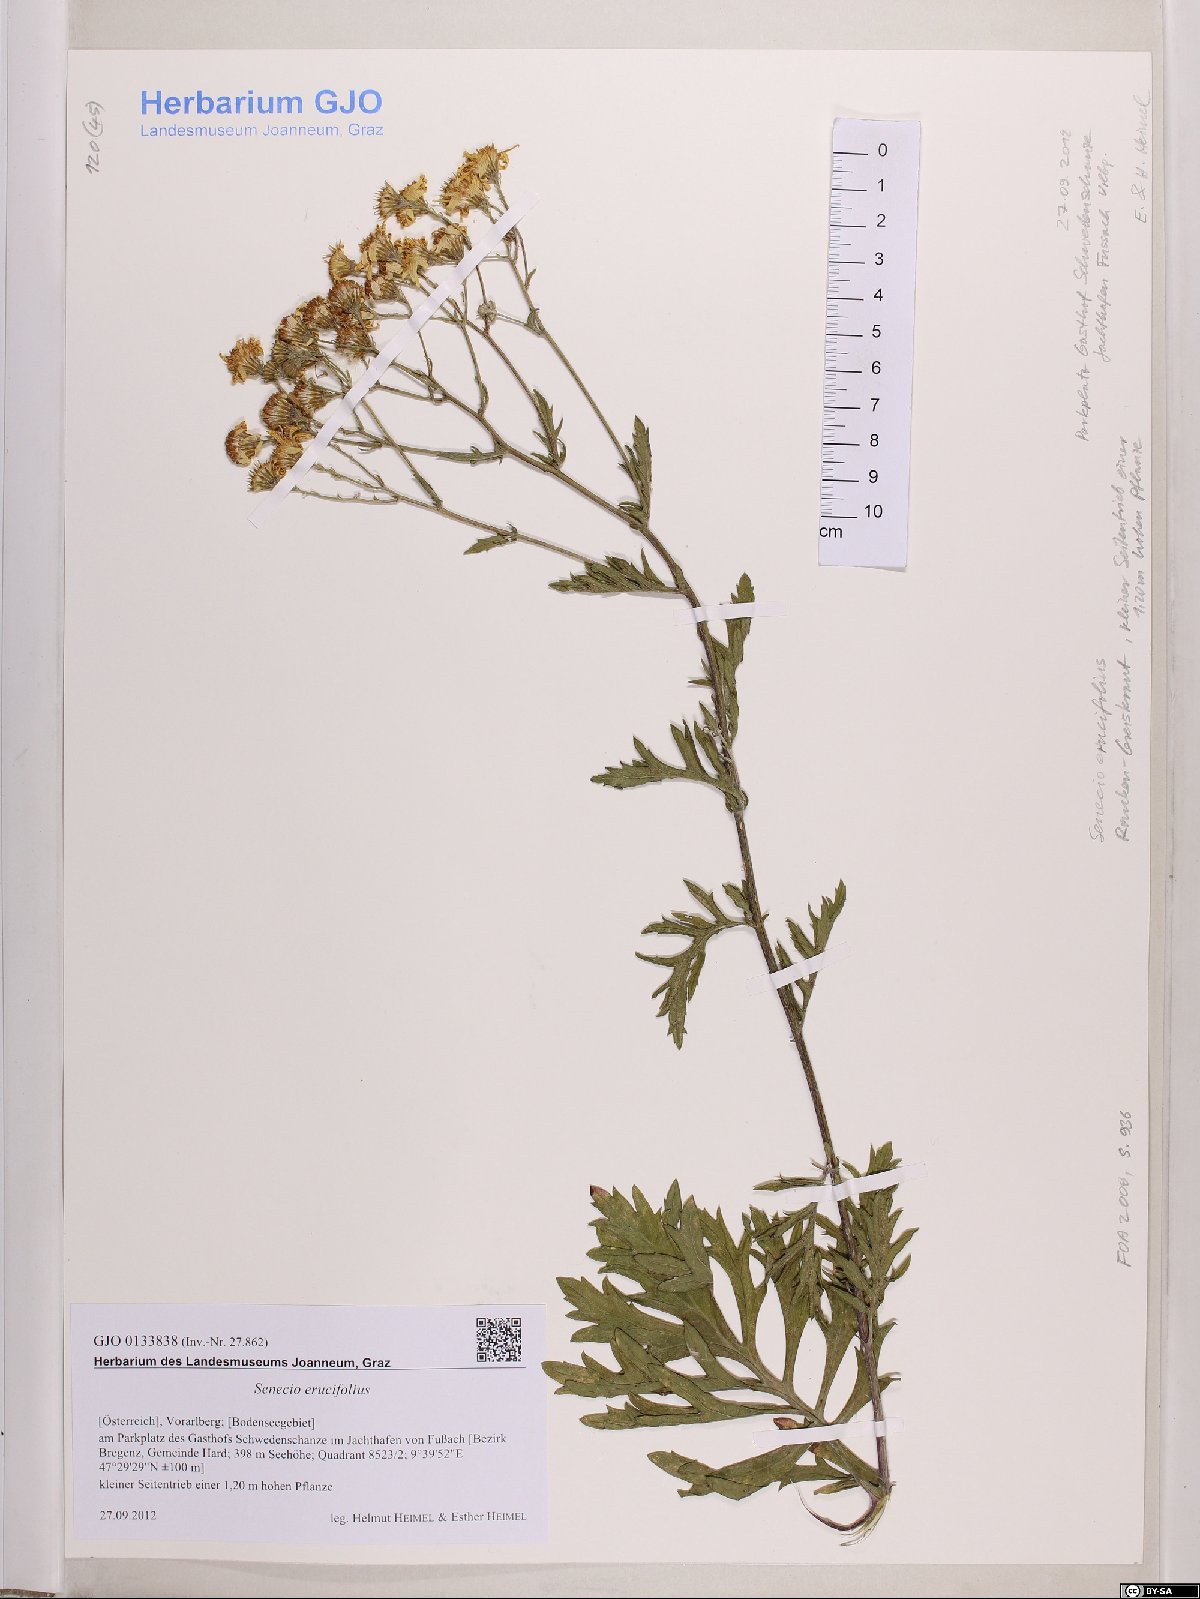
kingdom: Plantae
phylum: Tracheophyta
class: Magnoliopsida
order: Asterales
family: Asteraceae
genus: Jacobaea
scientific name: Jacobaea erucifolia
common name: Hoary ragwort
